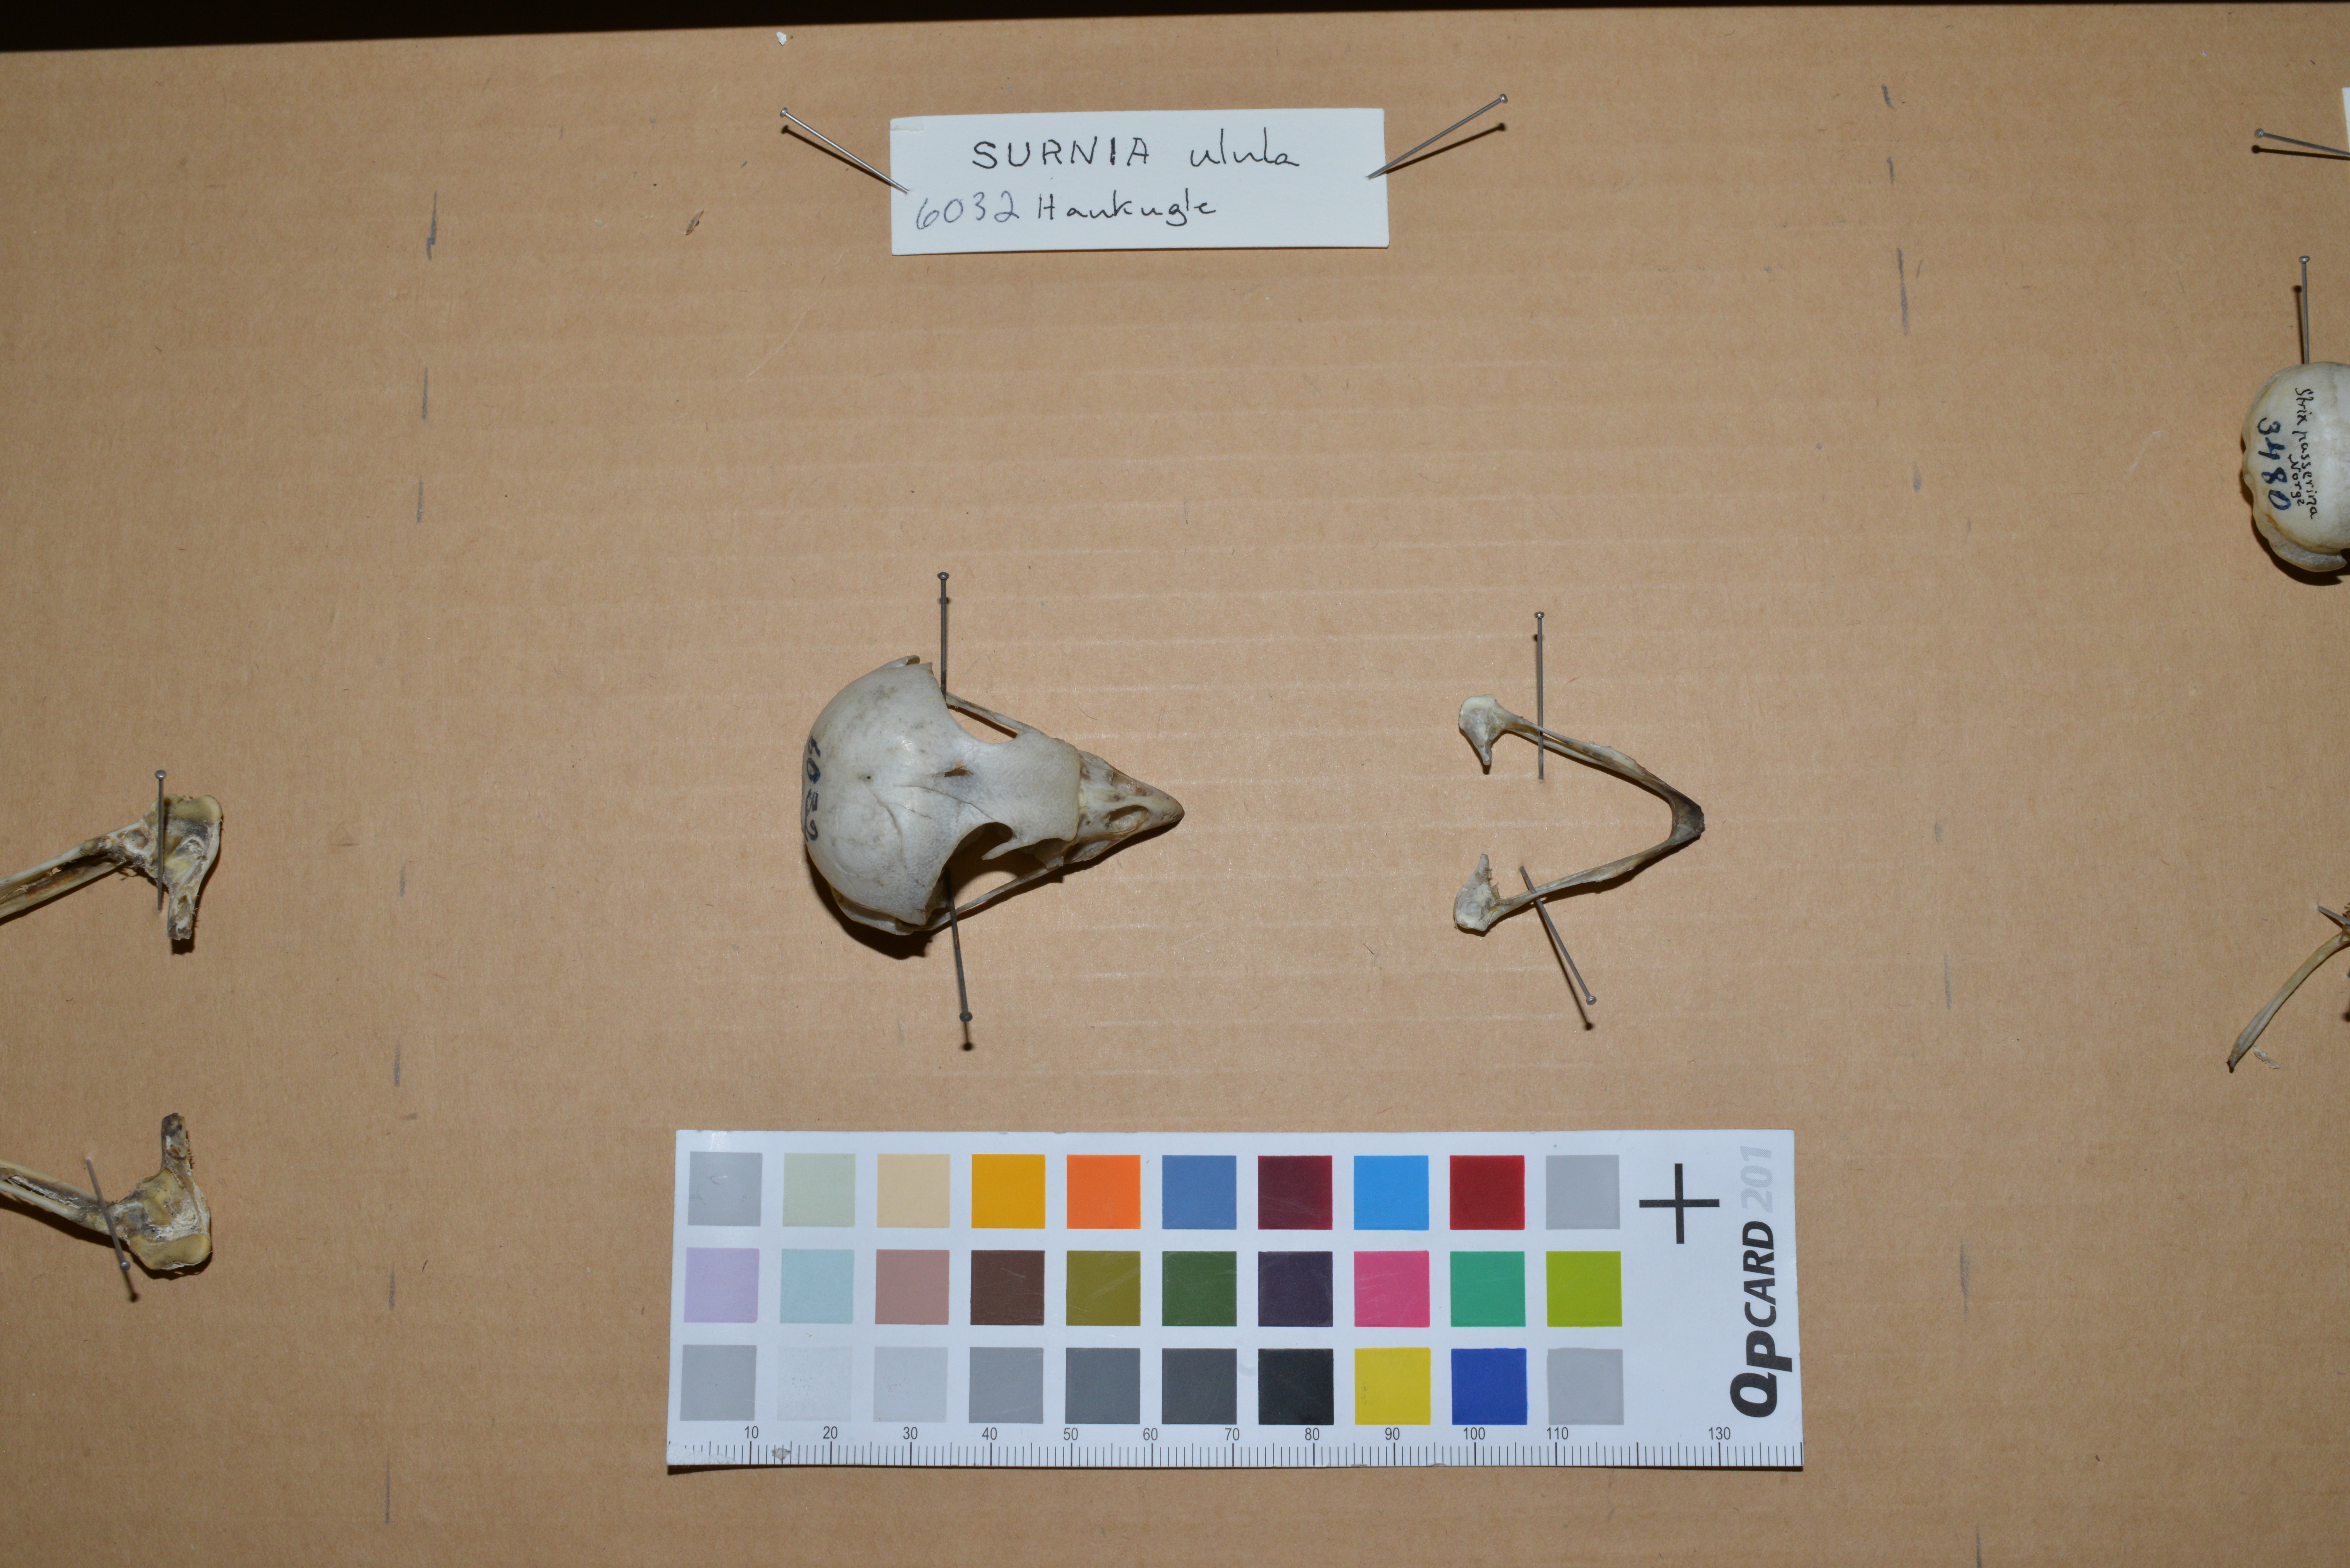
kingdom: Animalia
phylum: Chordata
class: Aves
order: Strigiformes
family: Strigidae
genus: Aegolius
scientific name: Aegolius funereus
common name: Boreal owl
